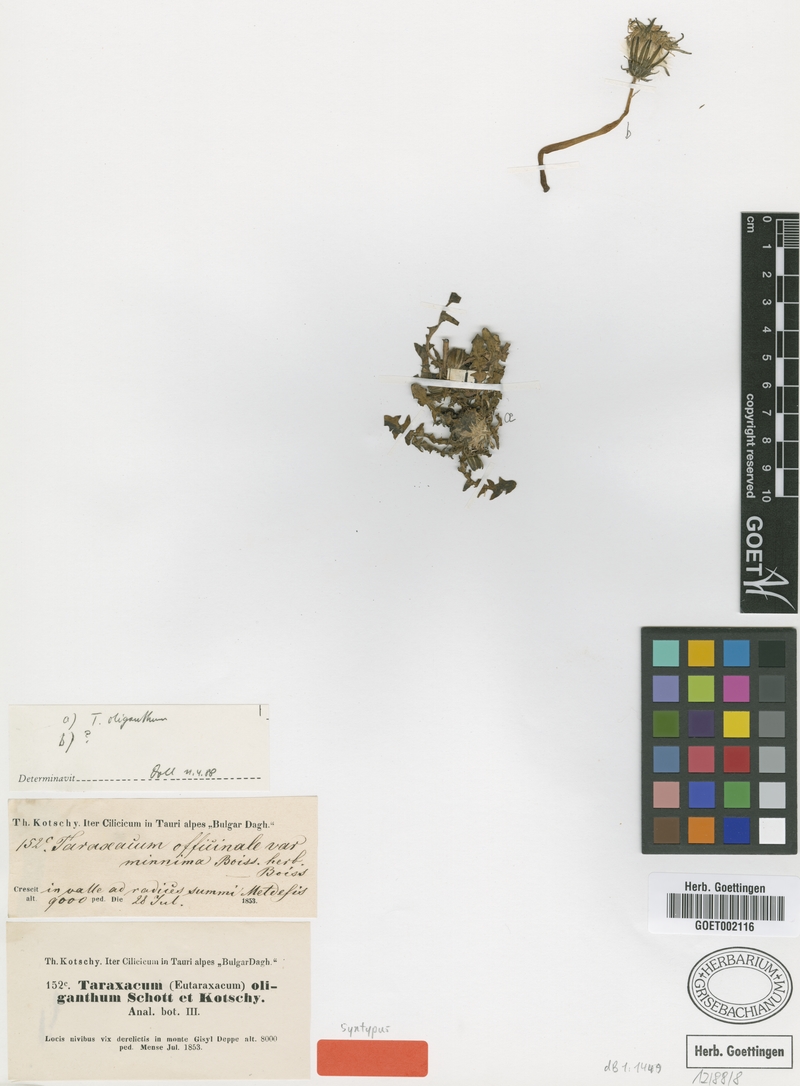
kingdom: Plantae
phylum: Tracheophyta
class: Magnoliopsida
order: Asterales
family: Asteraceae
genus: Taraxacum
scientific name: Taraxacum oliganthum
